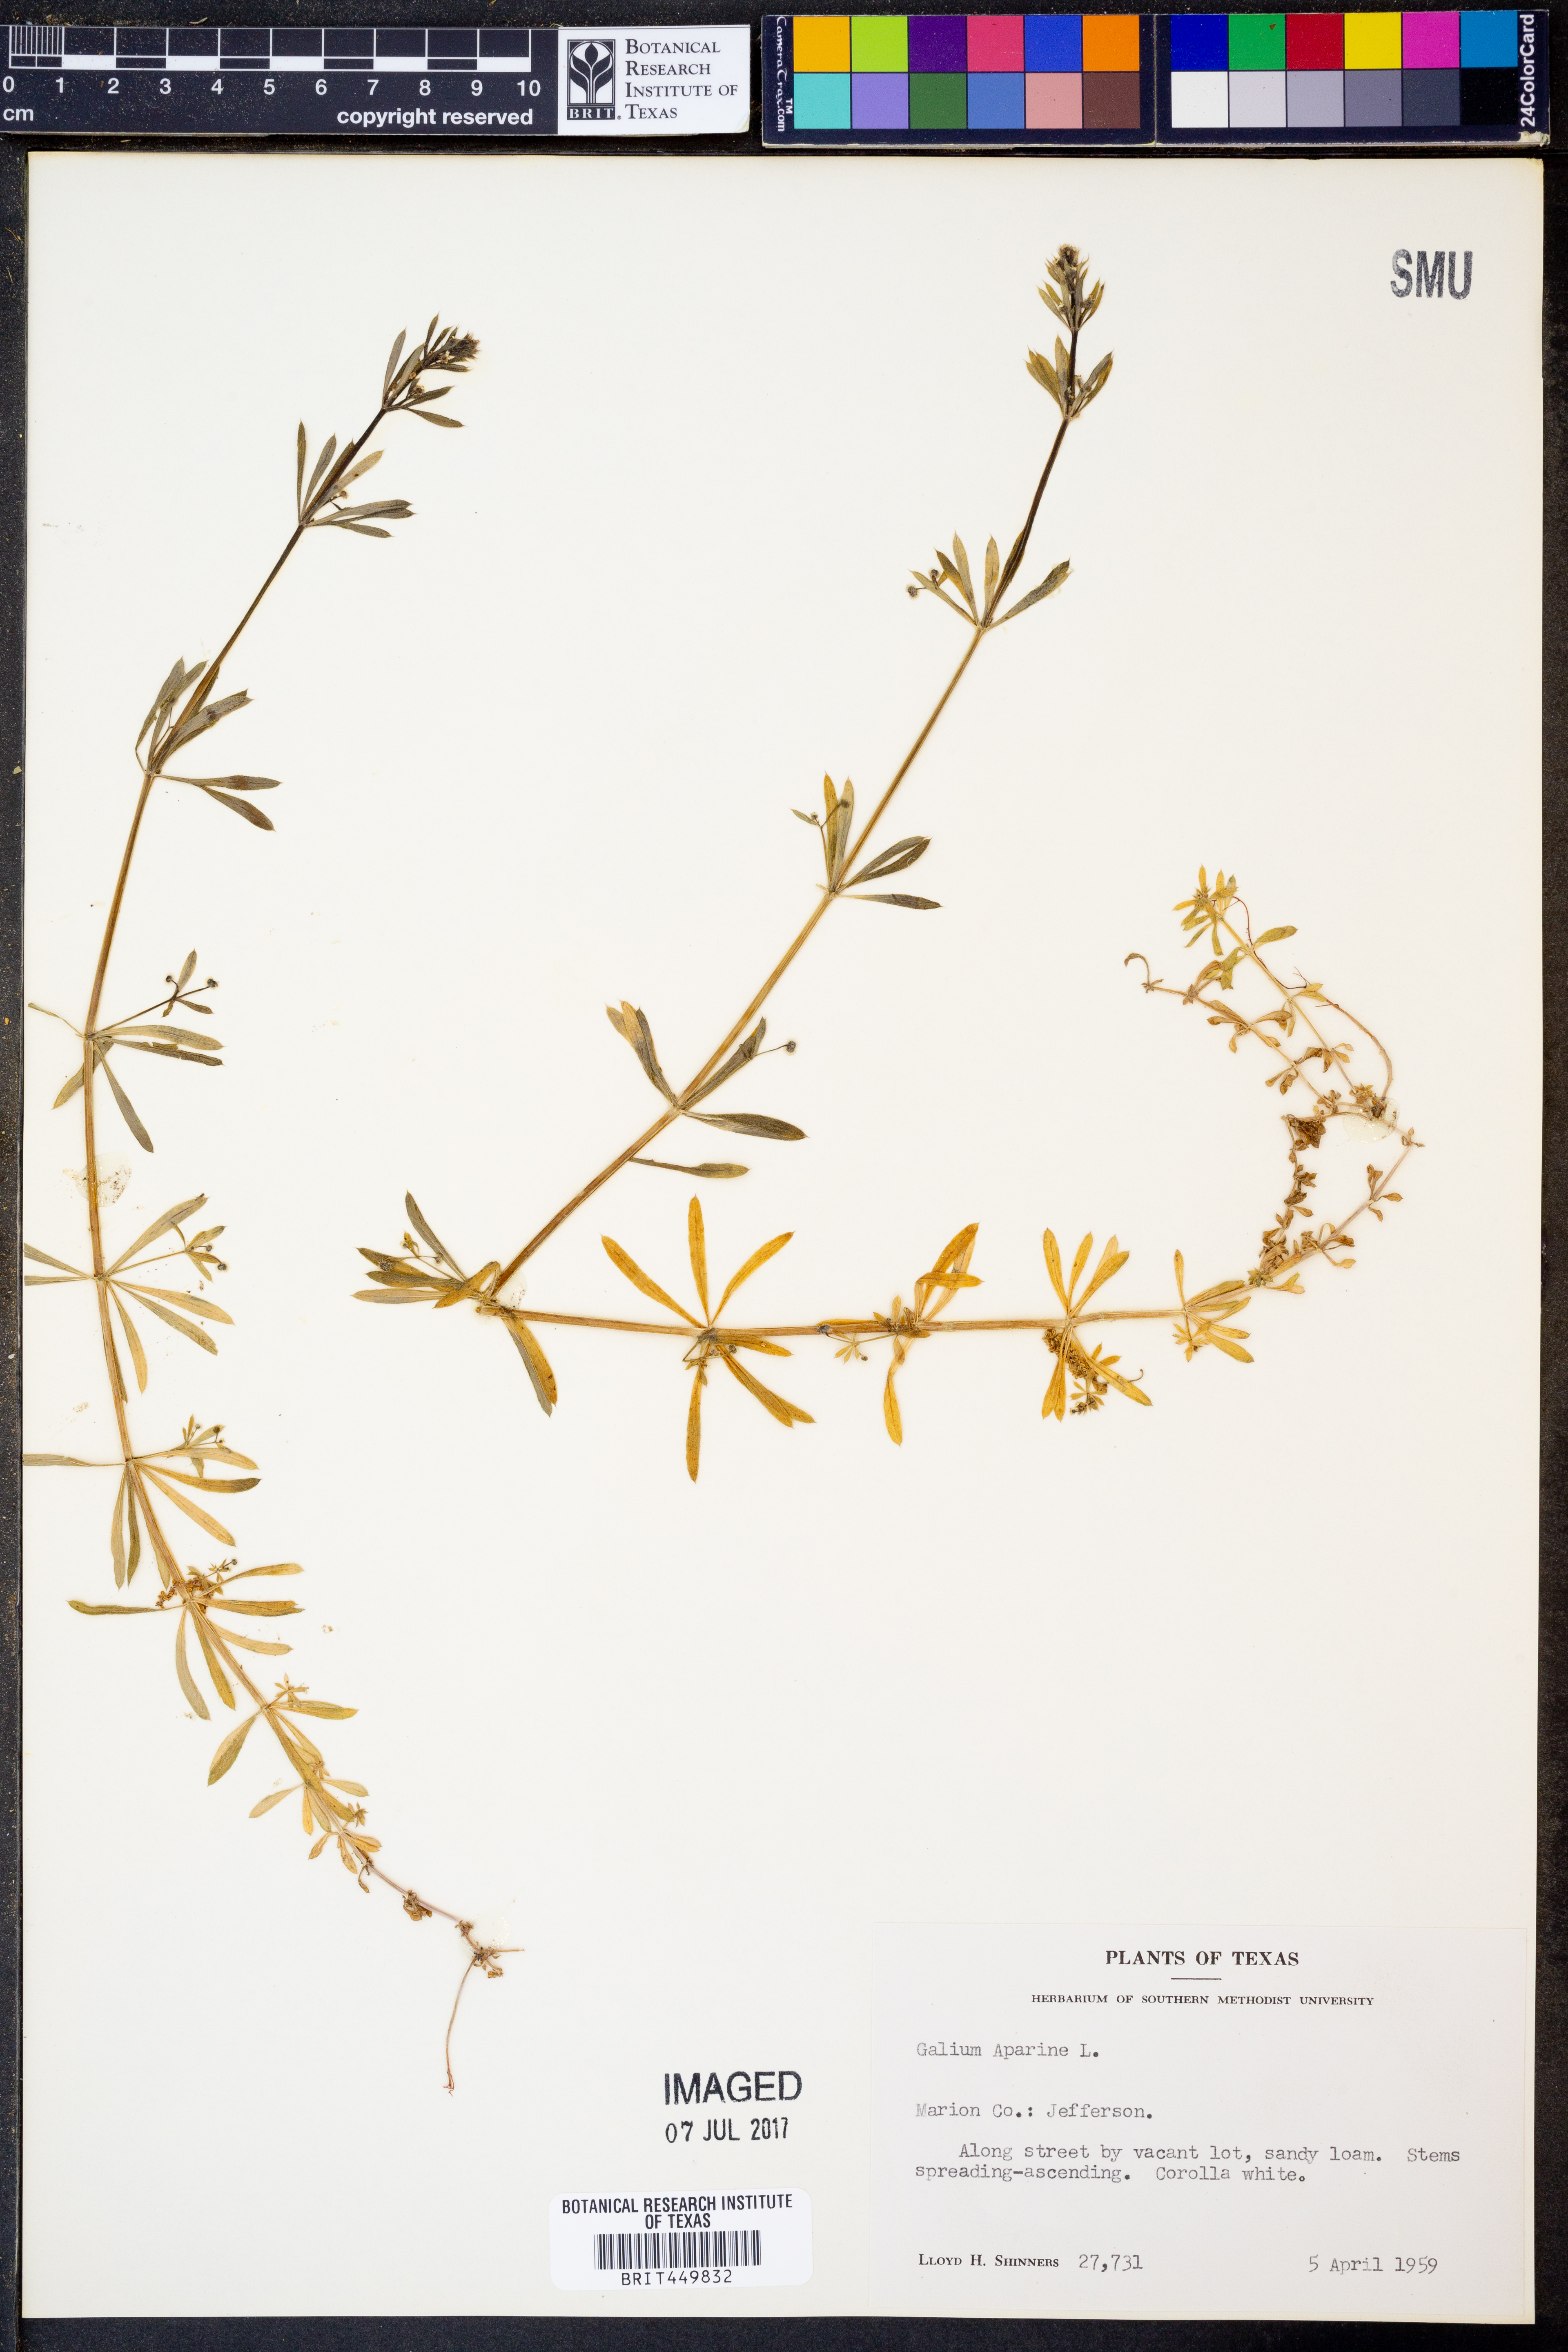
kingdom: Plantae
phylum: Tracheophyta
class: Magnoliopsida
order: Gentianales
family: Rubiaceae
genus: Galium
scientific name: Galium aparine
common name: Cleavers
